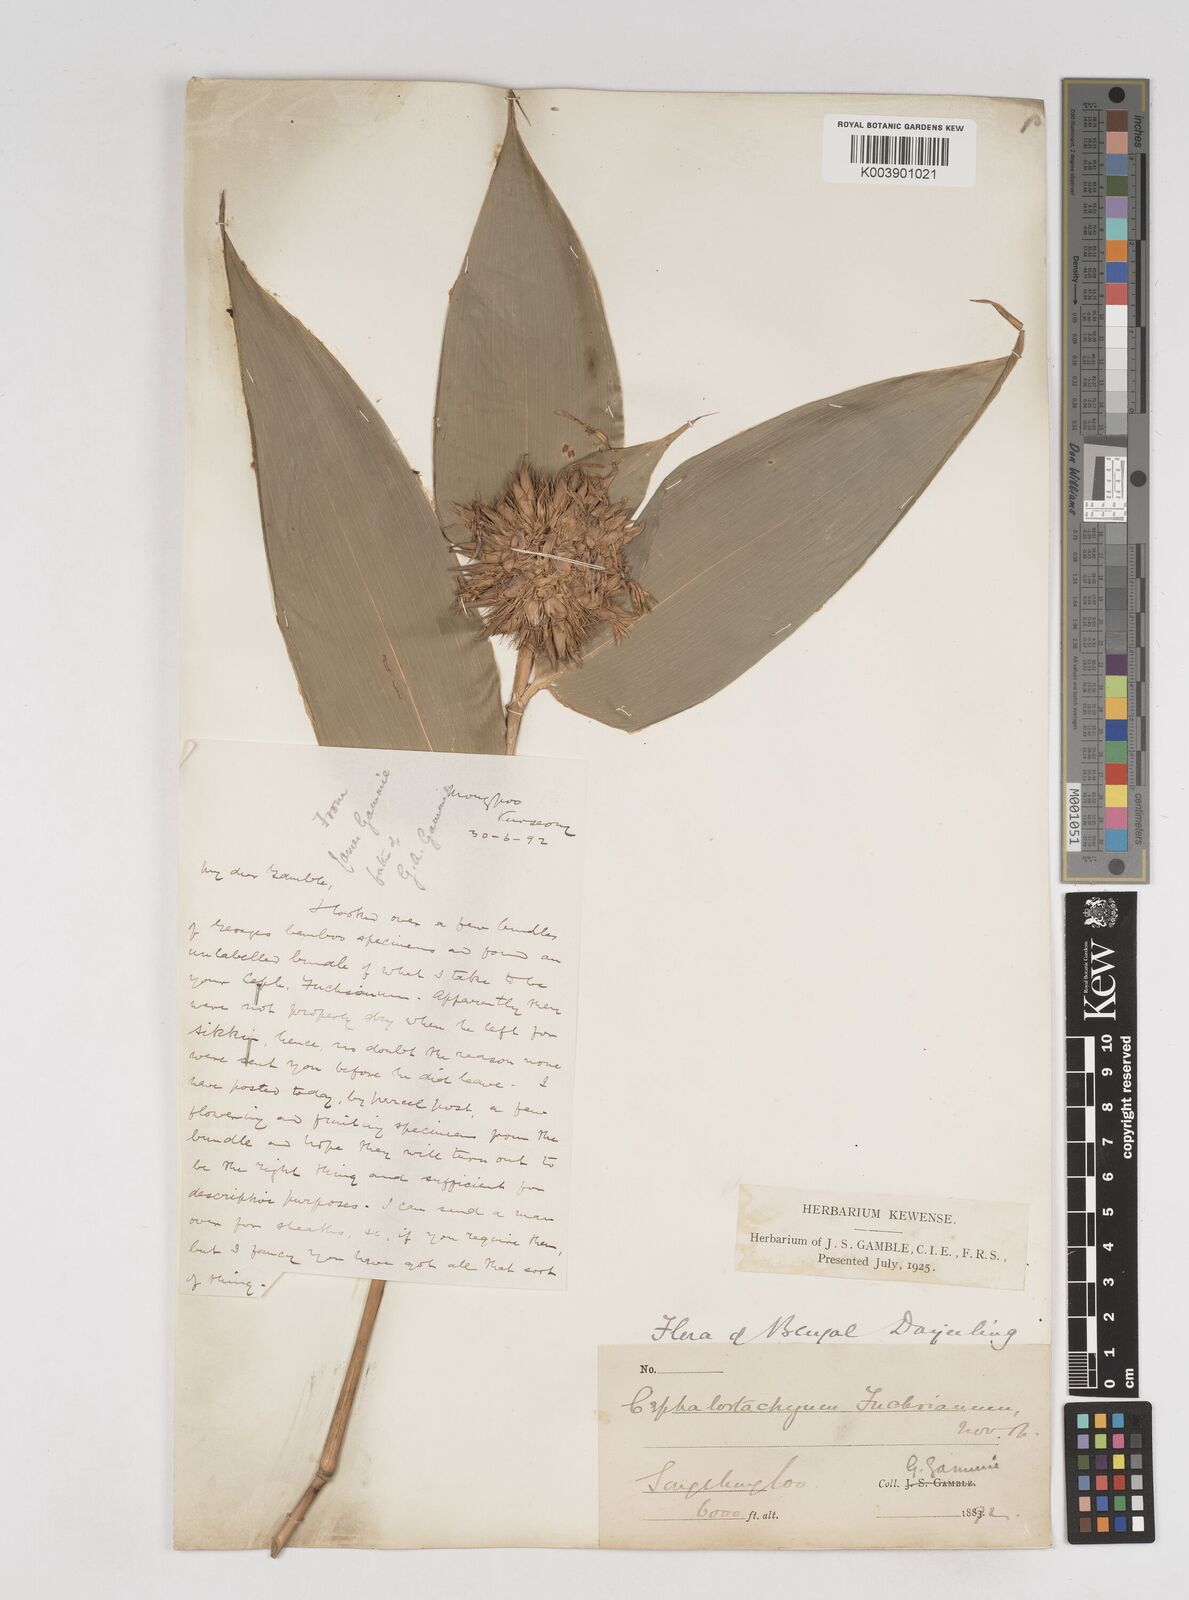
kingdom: Plantae
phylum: Tracheophyta
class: Liliopsida
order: Poales
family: Poaceae
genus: Cephalostachyum
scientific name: Cephalostachyum latifolium
